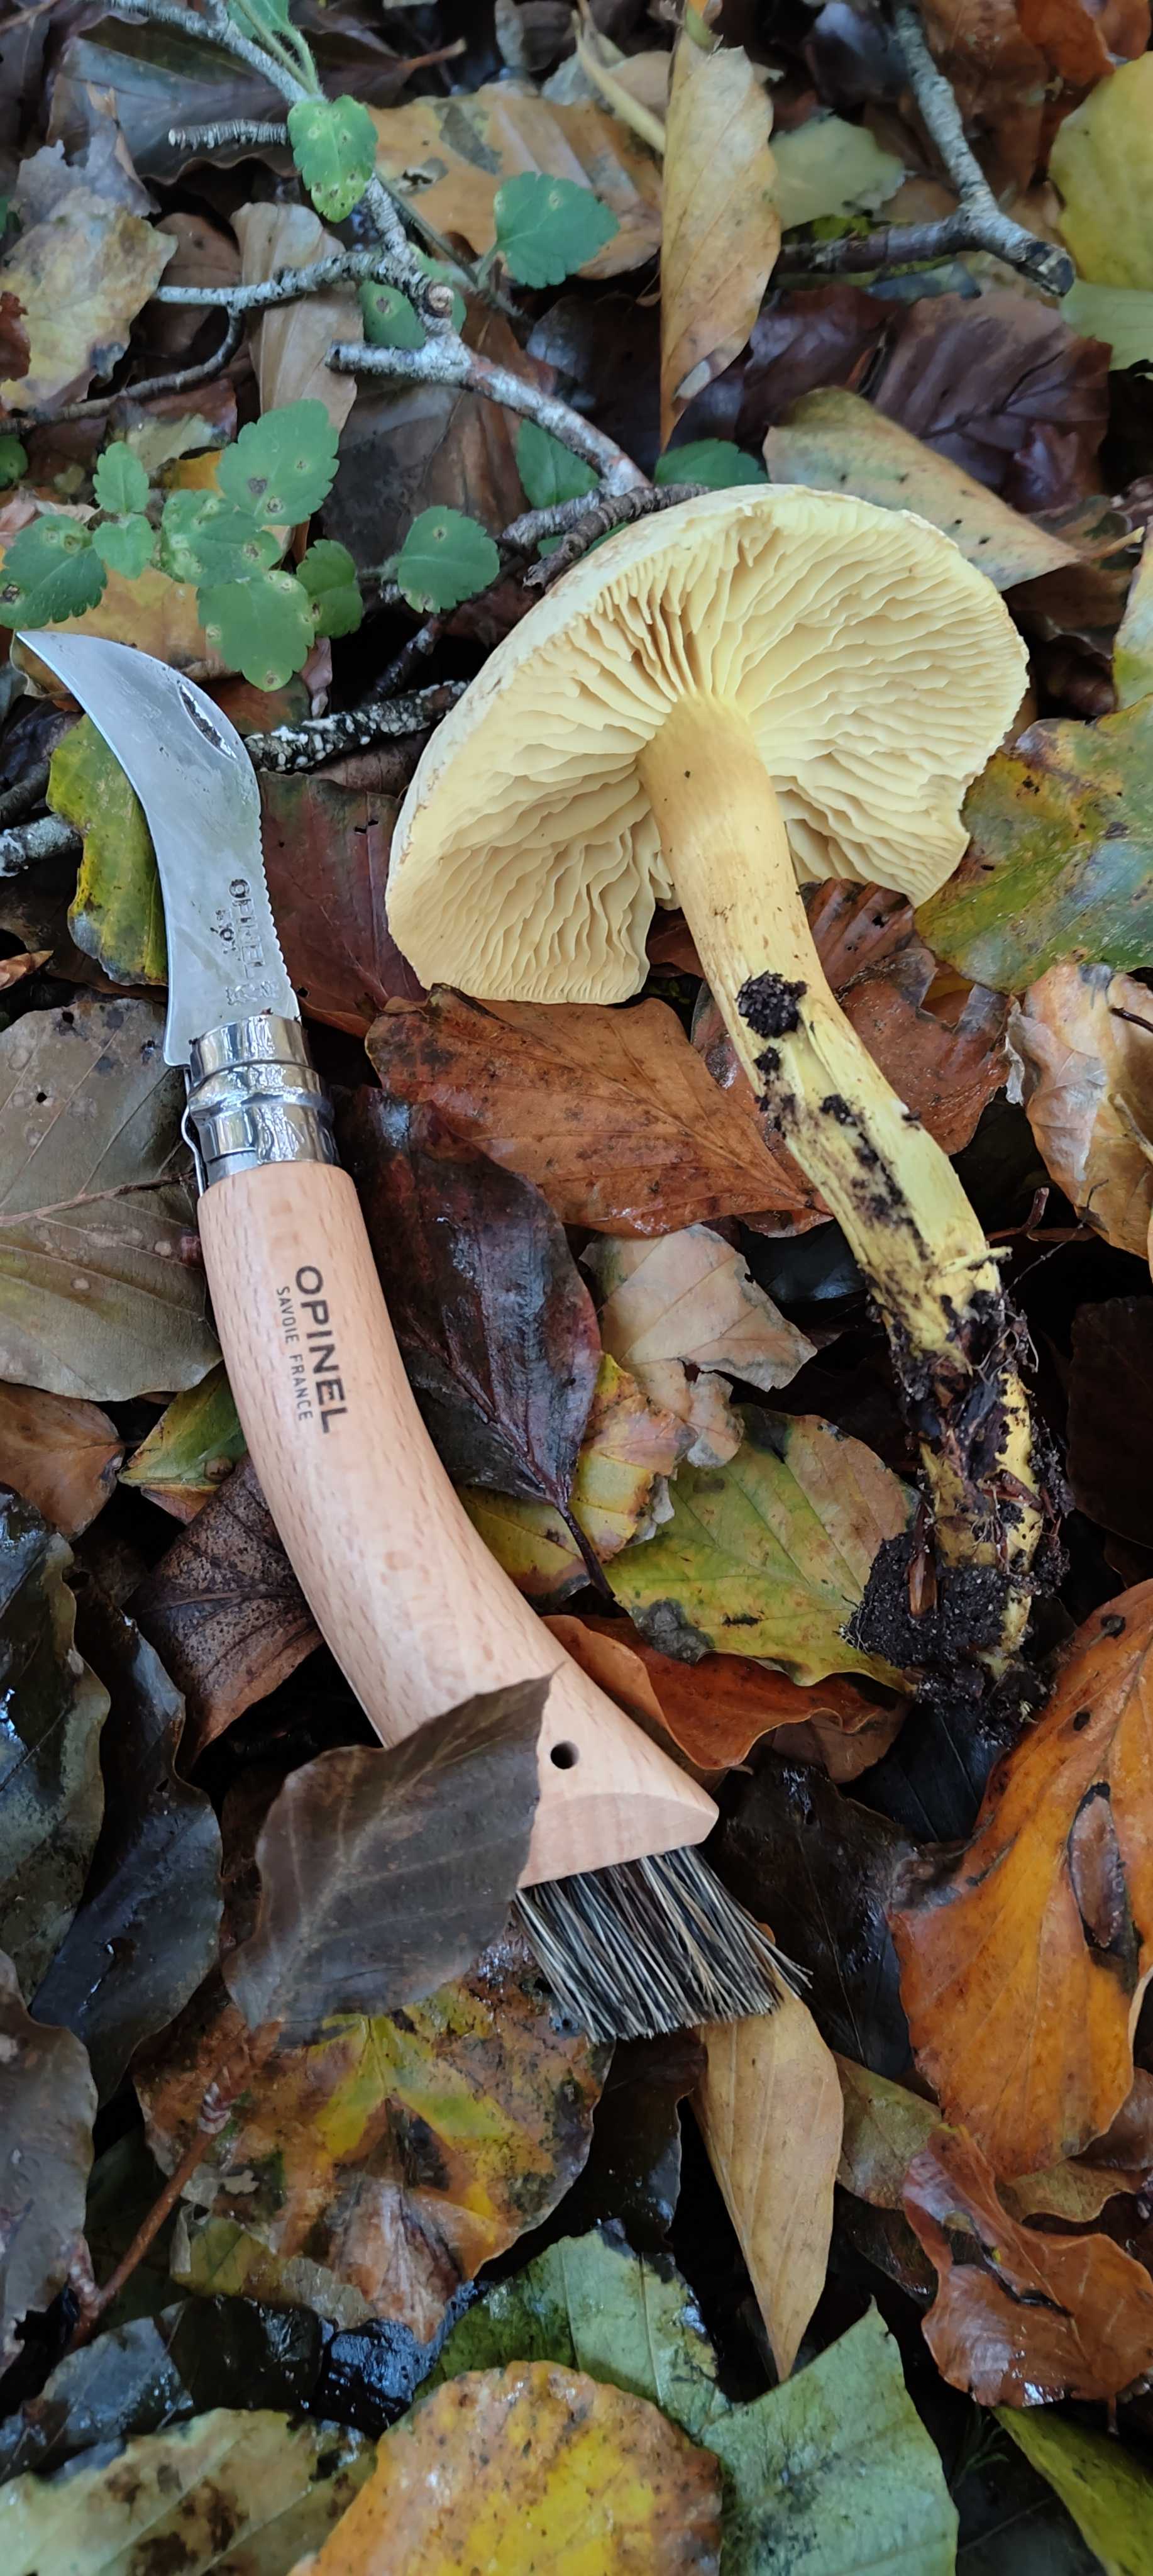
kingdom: Fungi
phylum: Basidiomycota
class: Agaricomycetes
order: Agaricales
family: Tricholomataceae
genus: Tricholoma
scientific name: Tricholoma sulphureum
